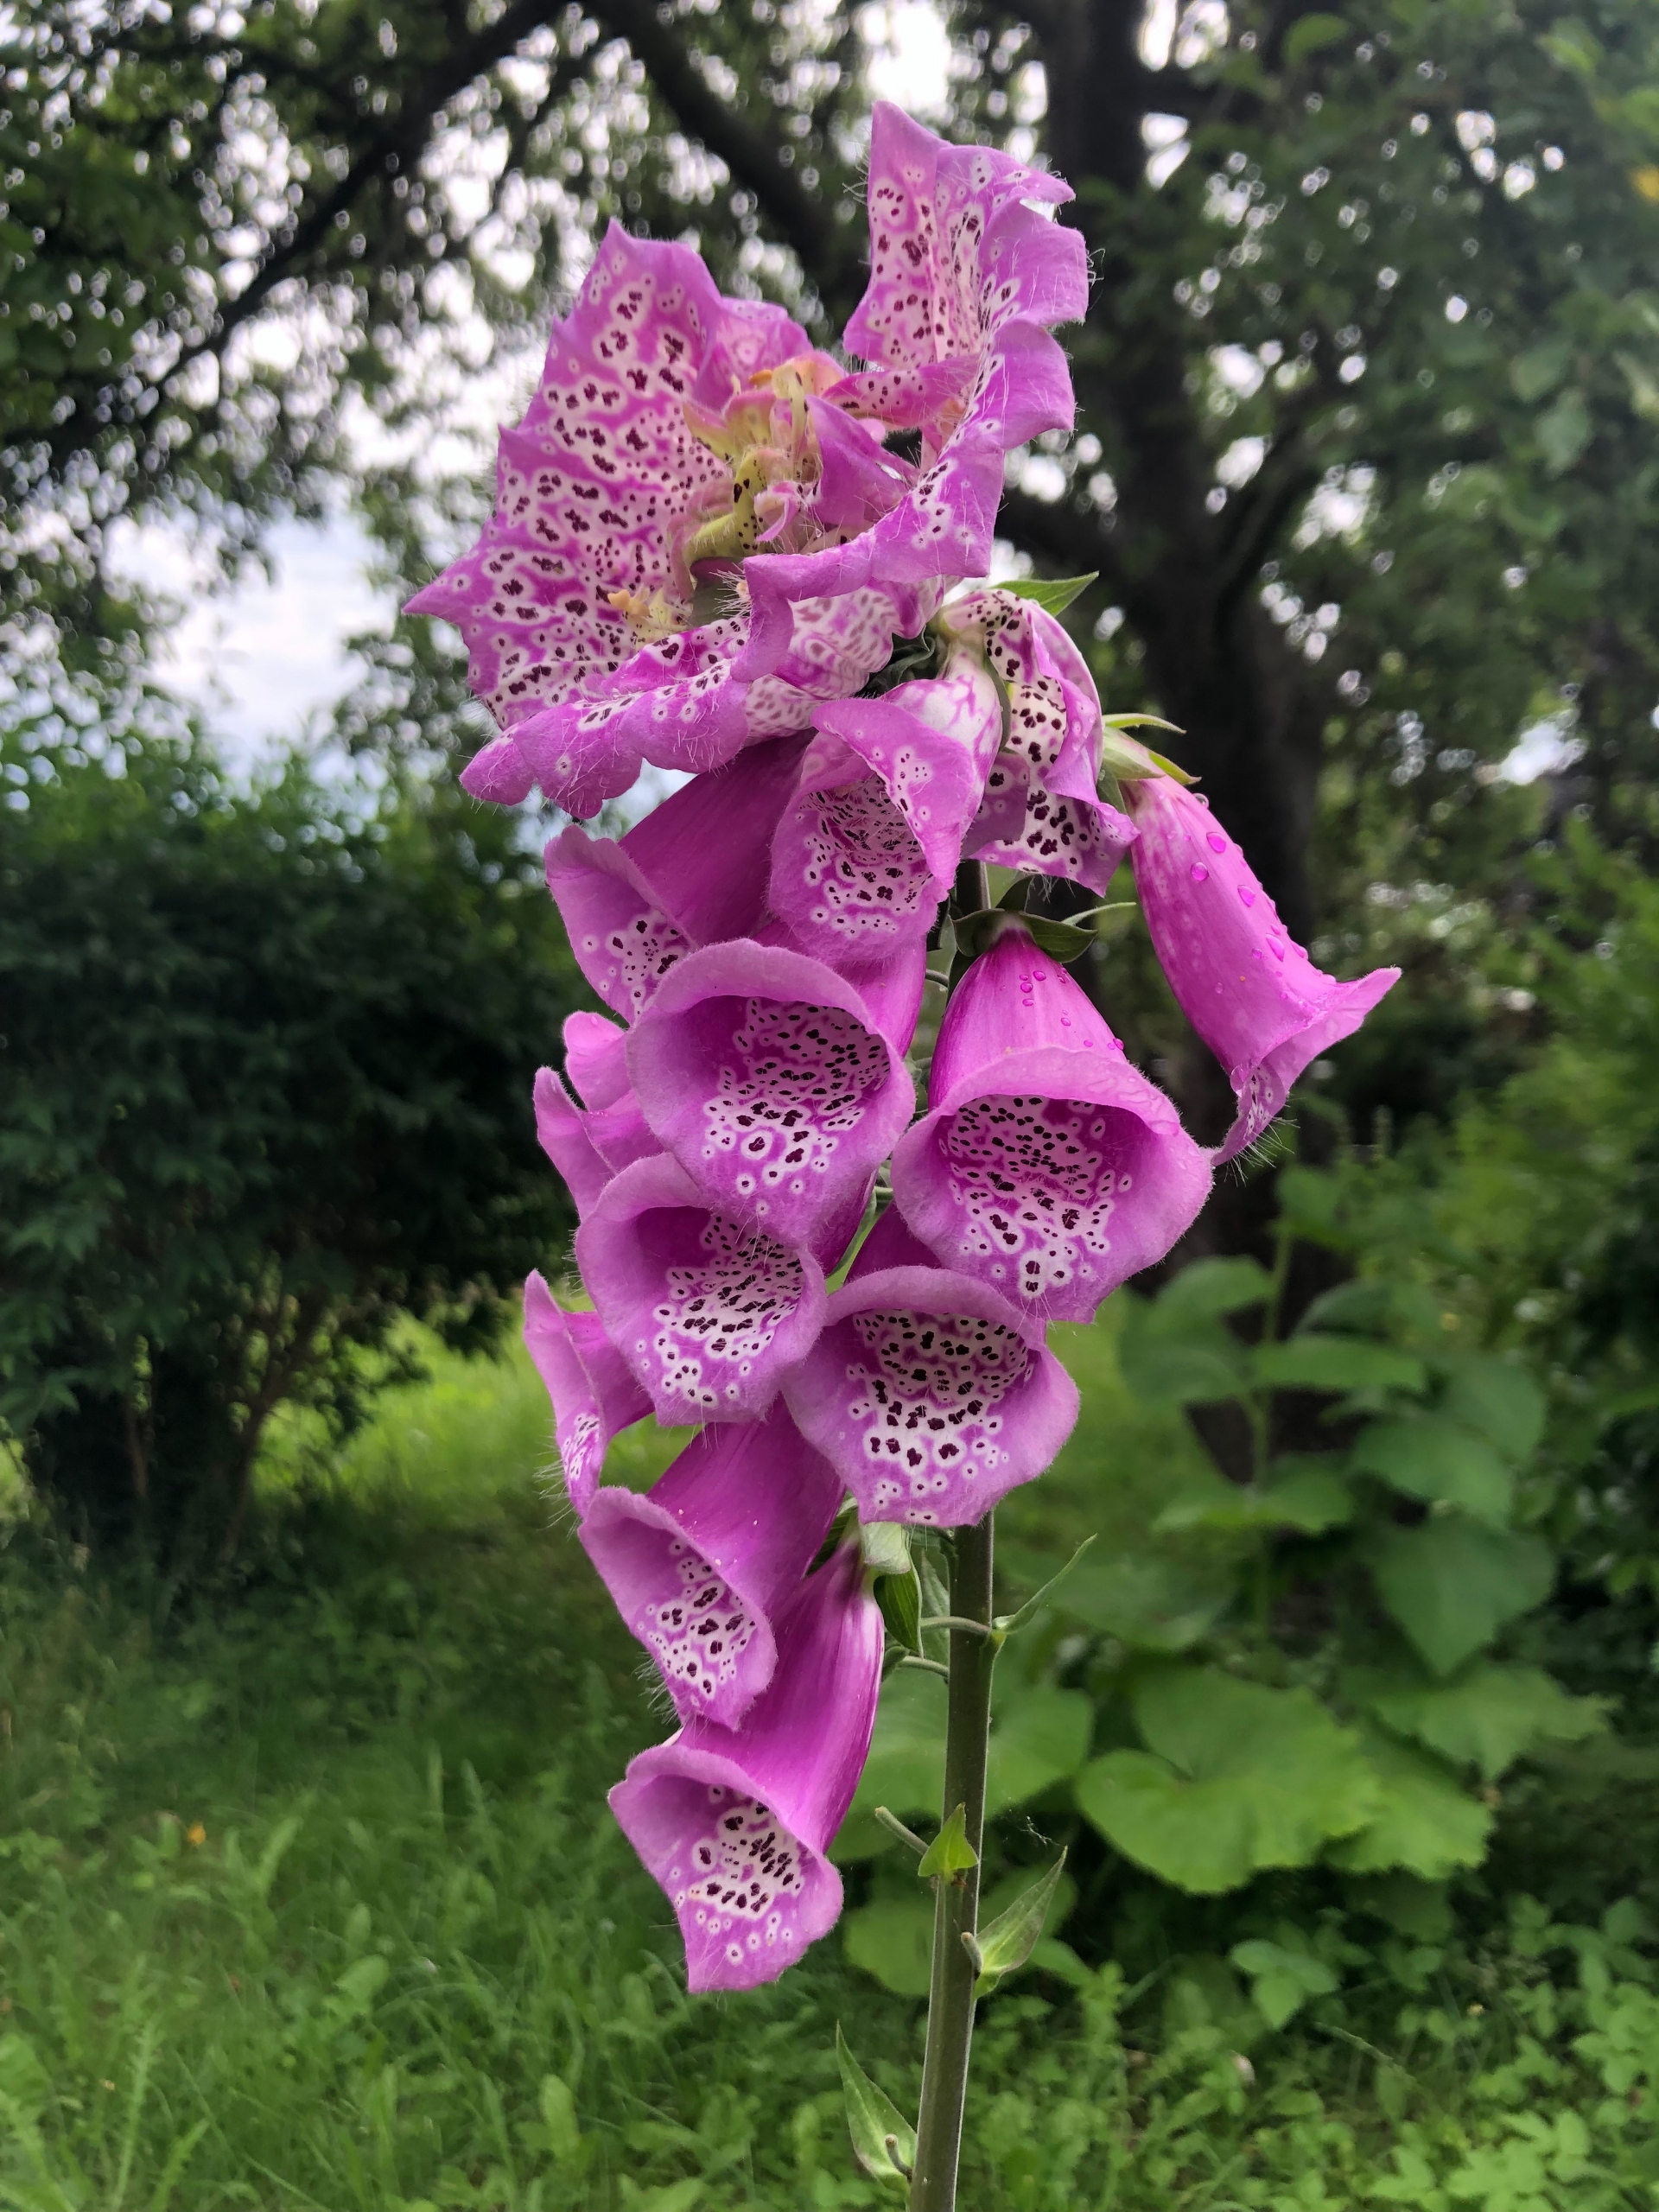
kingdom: Plantae
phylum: Tracheophyta
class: Magnoliopsida
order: Lamiales
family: Plantaginaceae
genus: Digitalis
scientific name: Digitalis purpurea
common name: Almindelig fingerbøl
